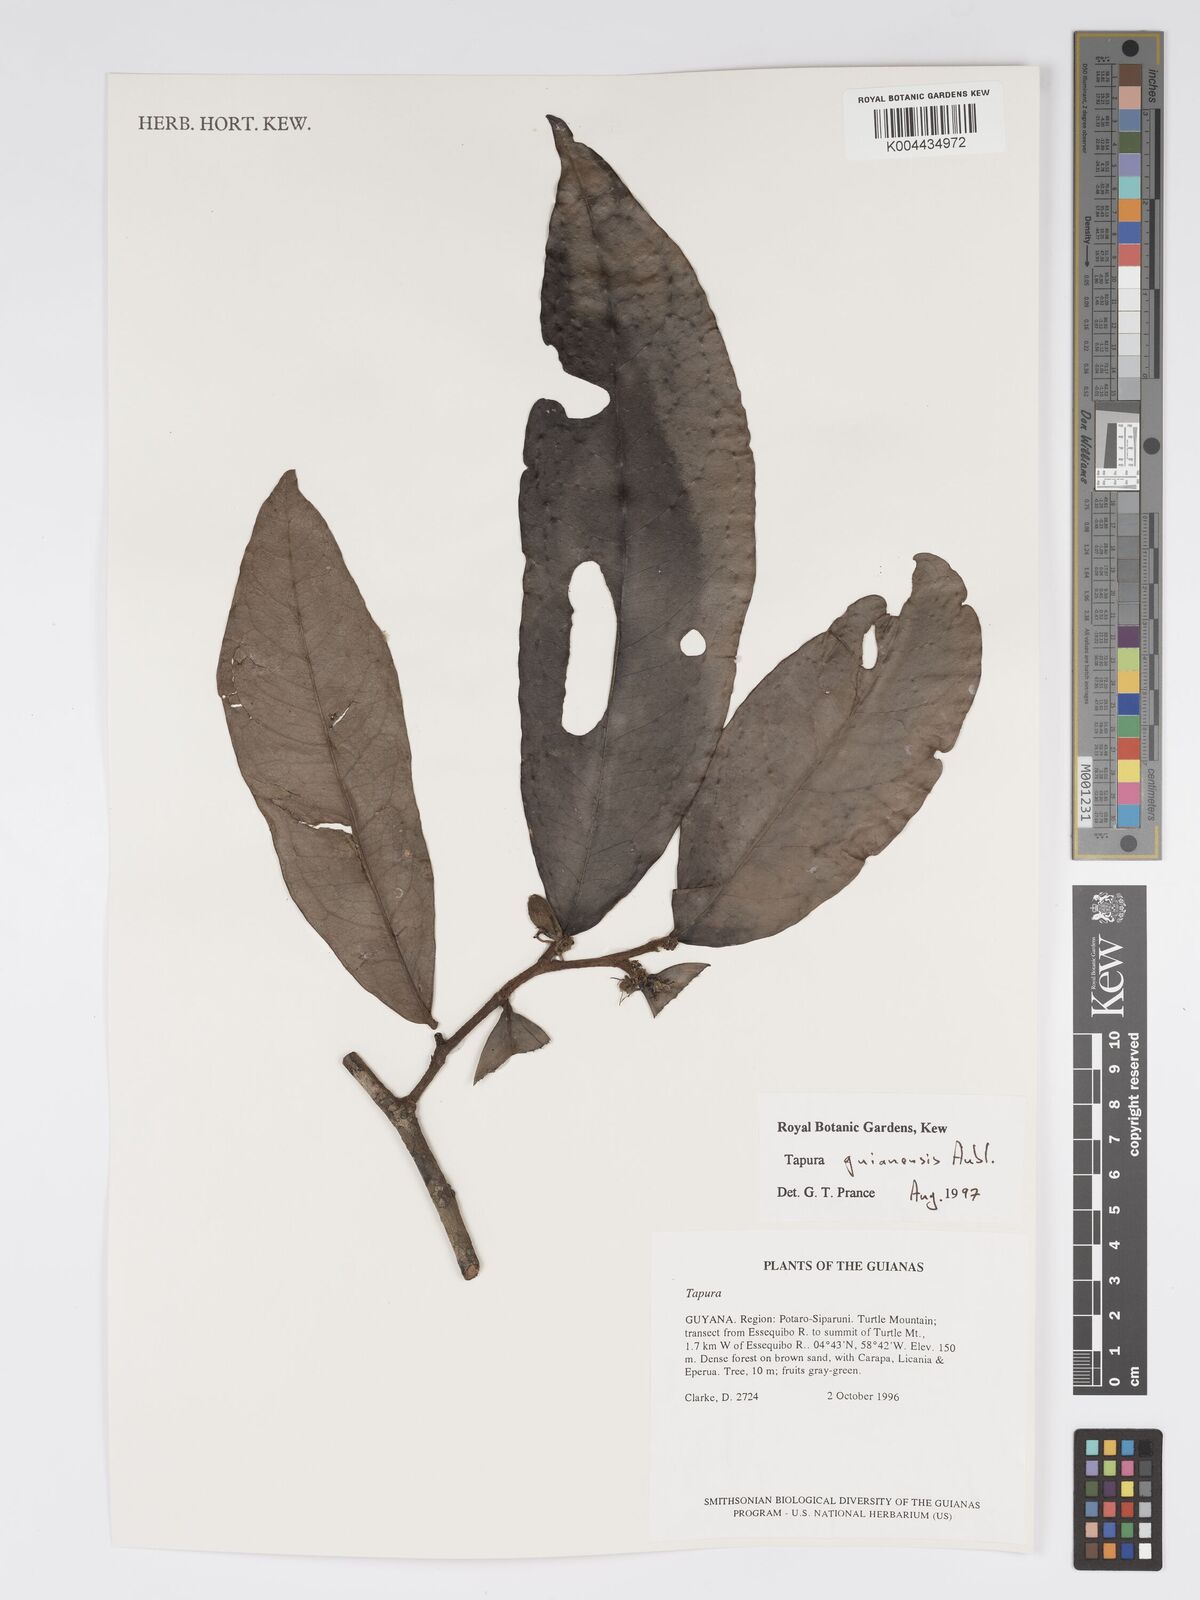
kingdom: Plantae
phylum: Tracheophyta
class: Magnoliopsida
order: Malpighiales
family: Dichapetalaceae
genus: Tapura
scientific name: Tapura guianensis
